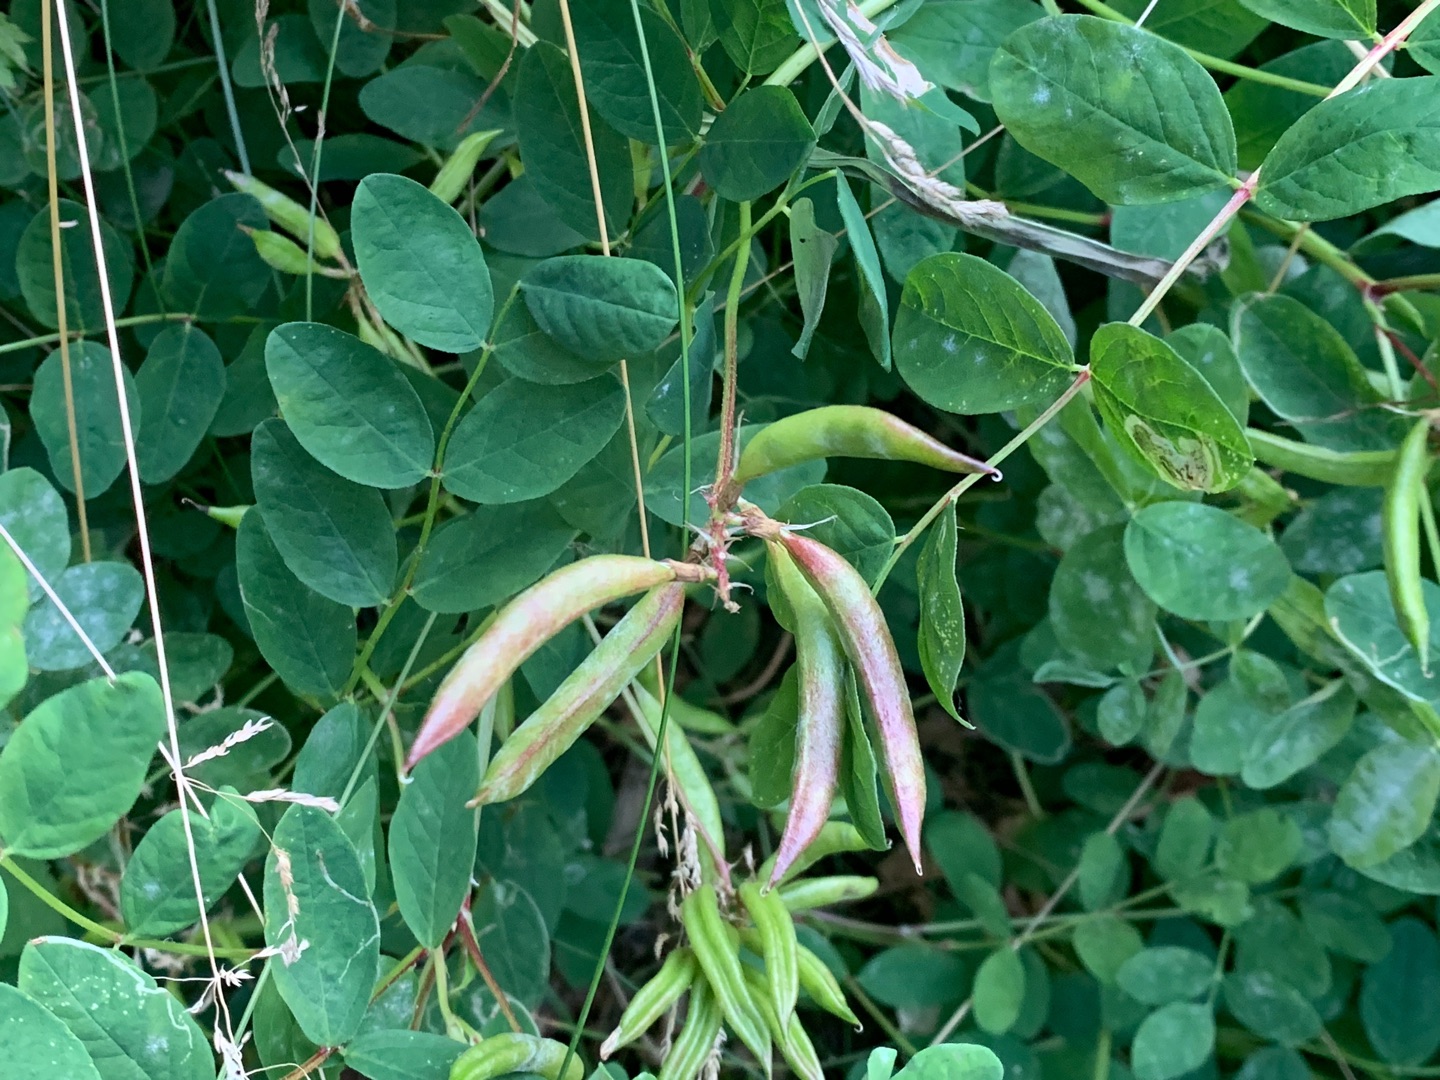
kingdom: Plantae
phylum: Tracheophyta
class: Magnoliopsida
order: Fabales
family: Fabaceae
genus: Astragalus
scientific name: Astragalus glycyphyllos
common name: Sød astragel
